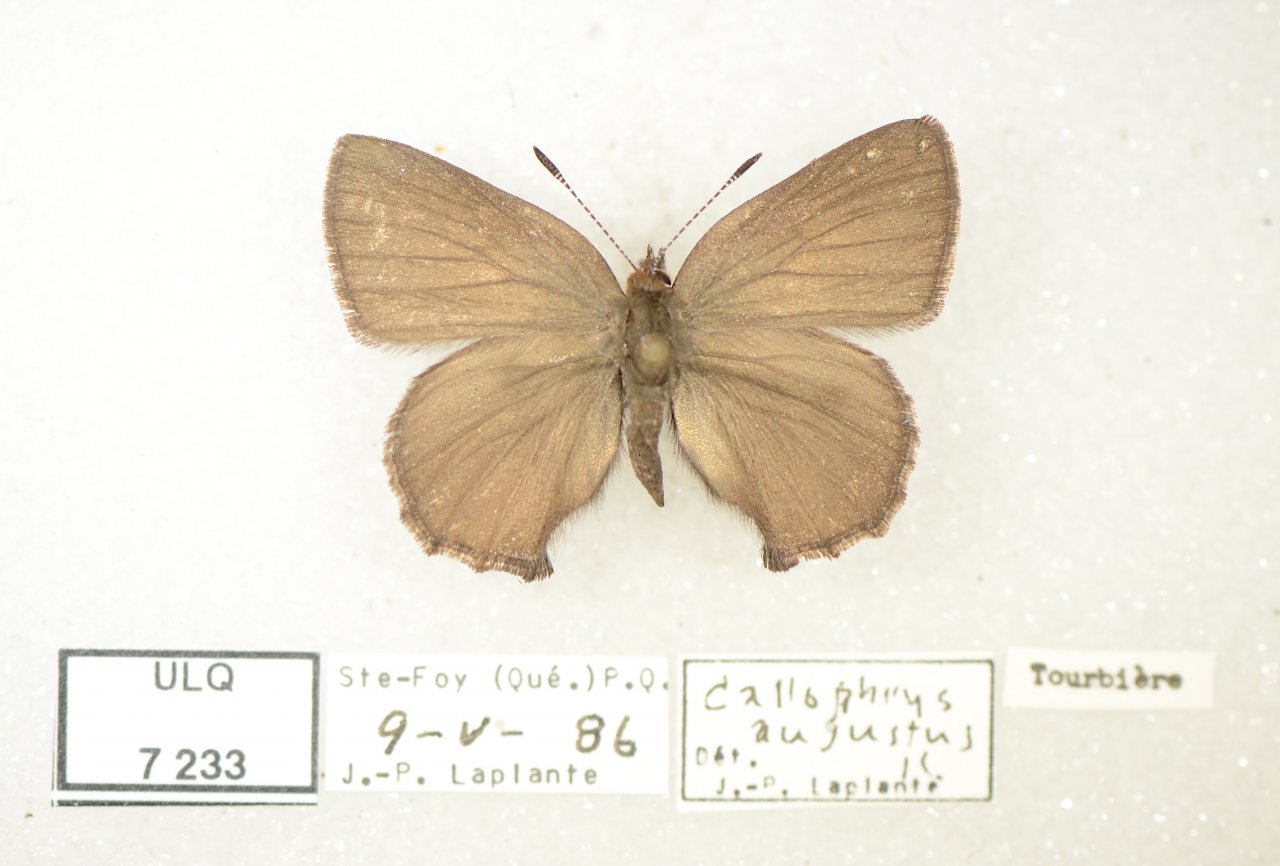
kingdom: Animalia
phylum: Arthropoda
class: Insecta
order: Lepidoptera
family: Lycaenidae
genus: Incisalia
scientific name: Incisalia irioides
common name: Brown Elfin
